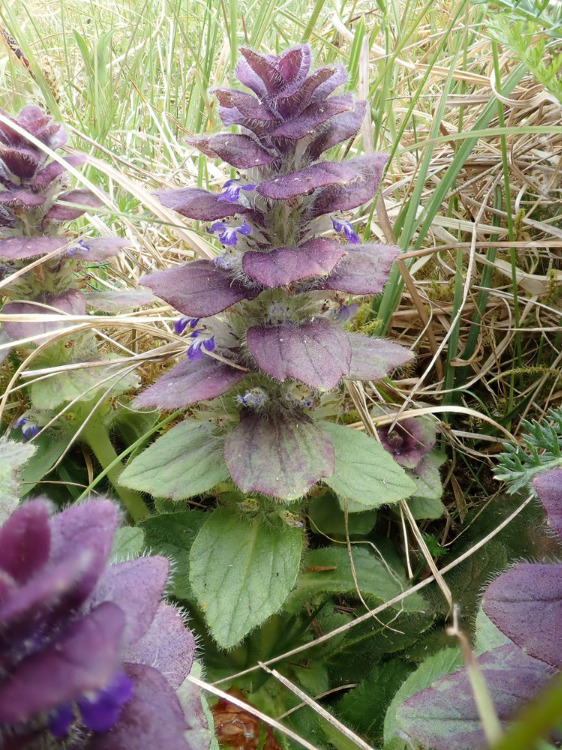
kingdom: Plantae
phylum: Tracheophyta
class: Magnoliopsida
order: Lamiales
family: Lamiaceae
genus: Ajuga
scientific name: Ajuga pyramidalis
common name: Pyramide-læbeløs
